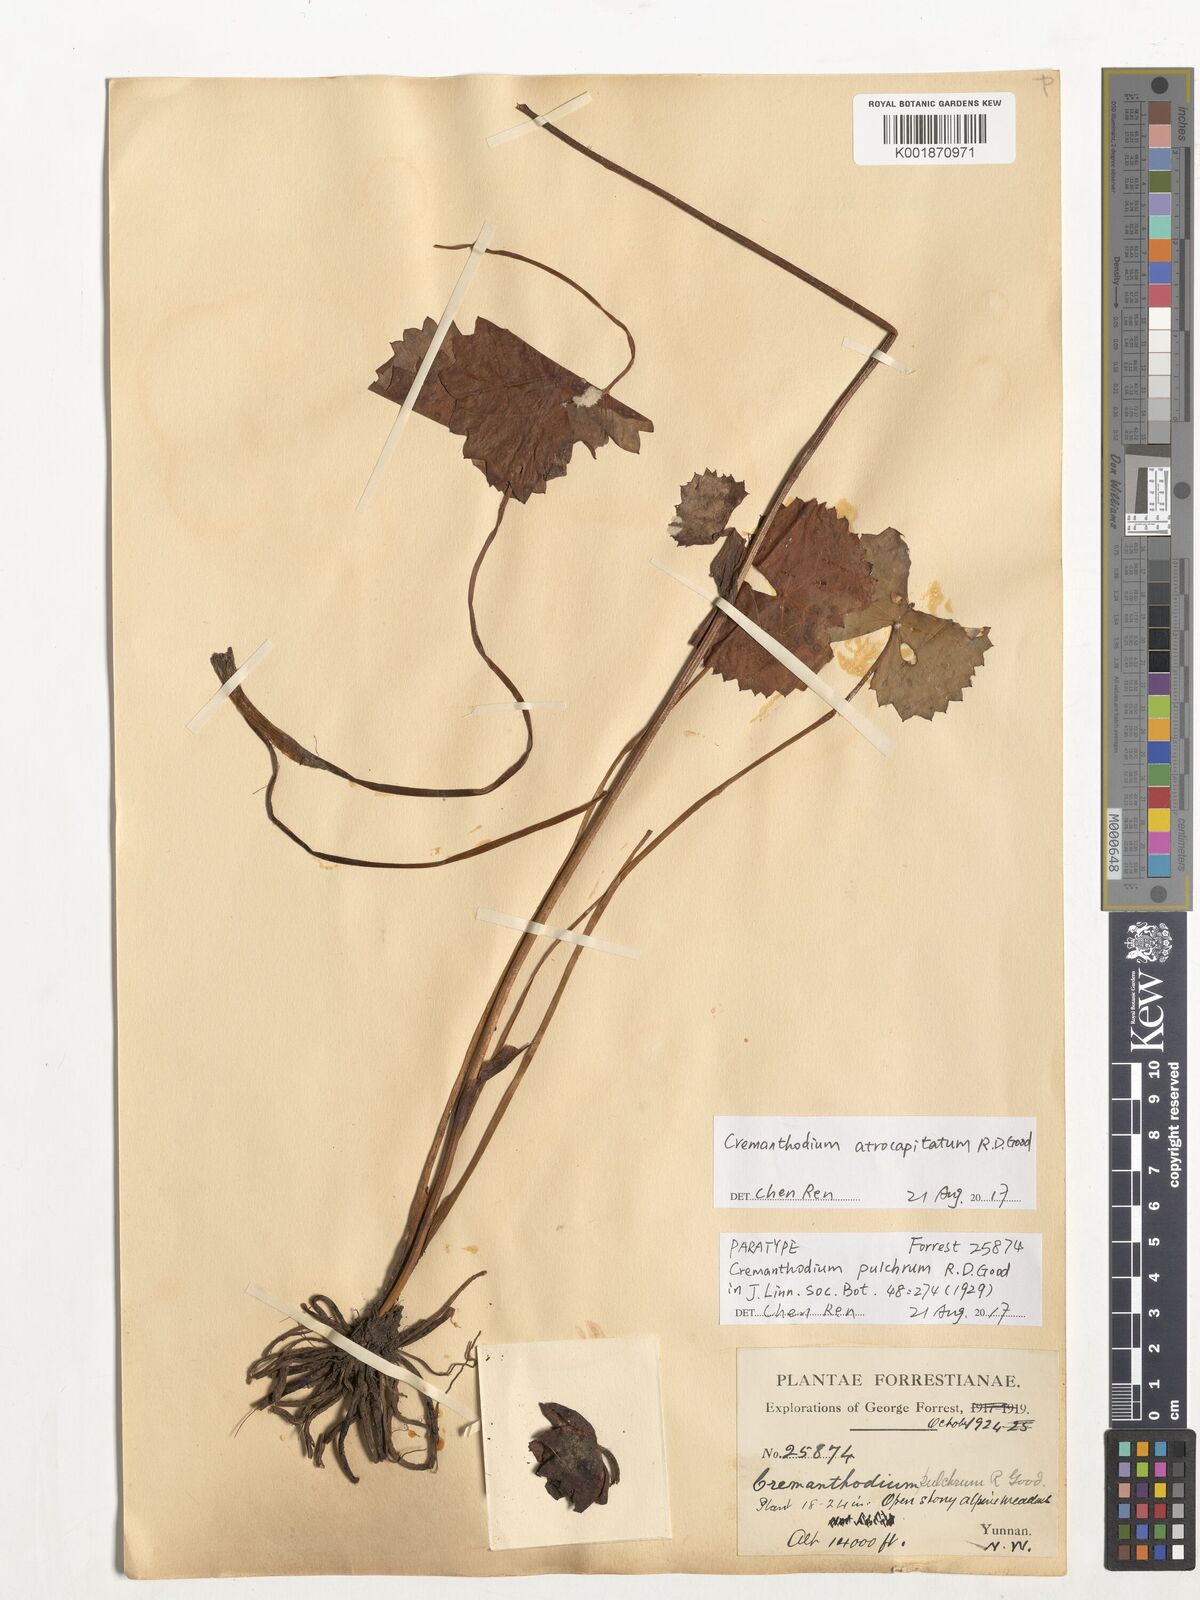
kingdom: Plantae
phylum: Tracheophyta
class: Magnoliopsida
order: Asterales
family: Asteraceae
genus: Cremanthodium
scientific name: Cremanthodium atrocapitatum
